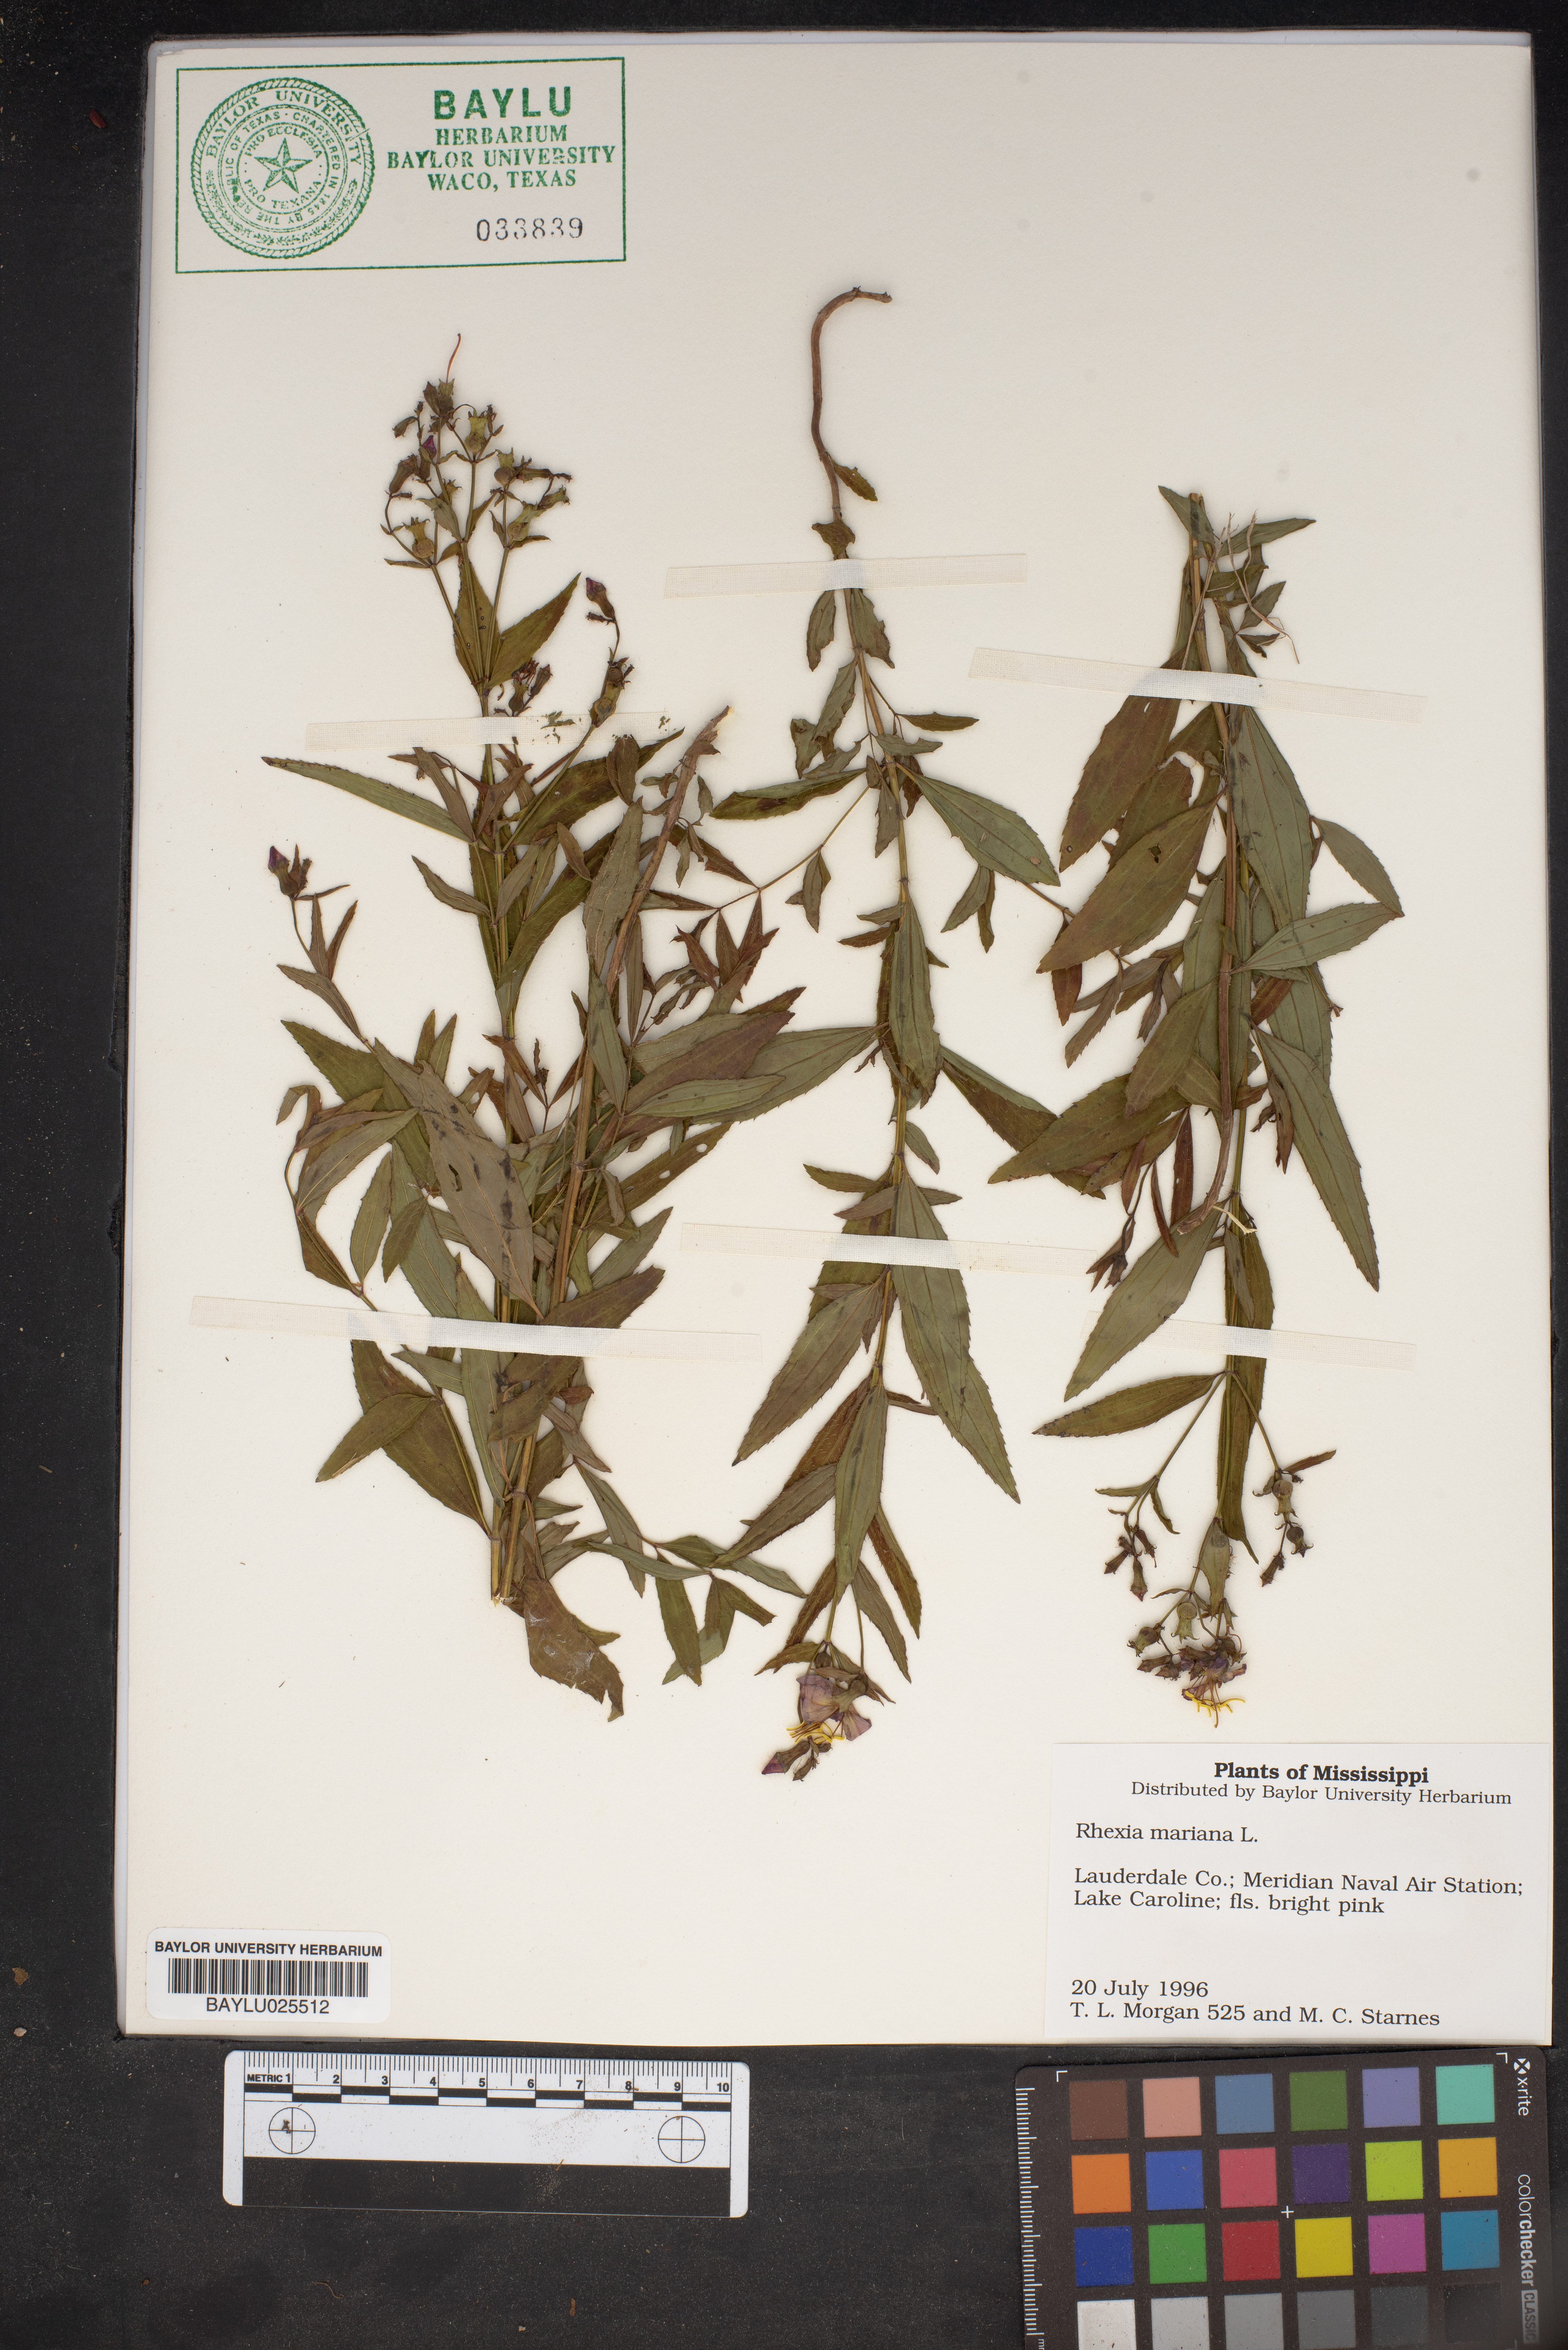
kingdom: Plantae
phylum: Tracheophyta
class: Magnoliopsida
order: Myrtales
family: Melastomataceae
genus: Rhexia
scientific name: Rhexia mariana
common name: Dull meadow-pitcher
